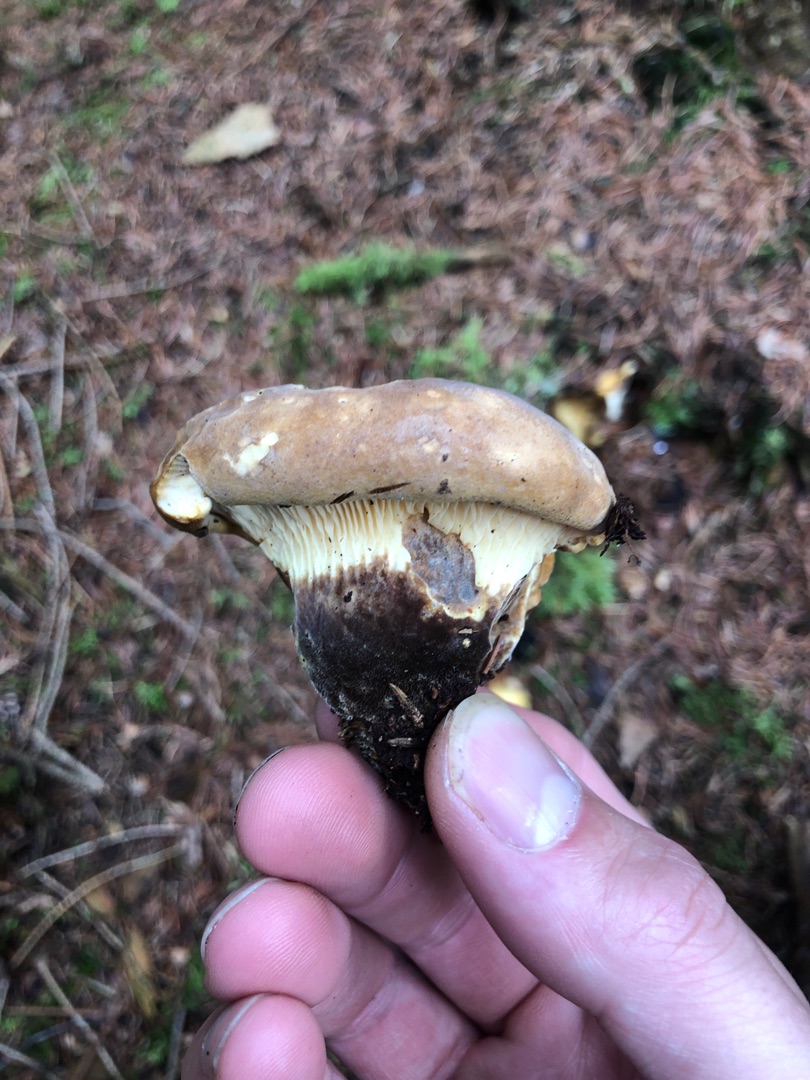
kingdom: Fungi
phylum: Basidiomycota
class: Agaricomycetes
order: Boletales
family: Tapinellaceae
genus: Tapinella
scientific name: Tapinella atrotomentosa
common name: Sortfiltet viftesvamp
